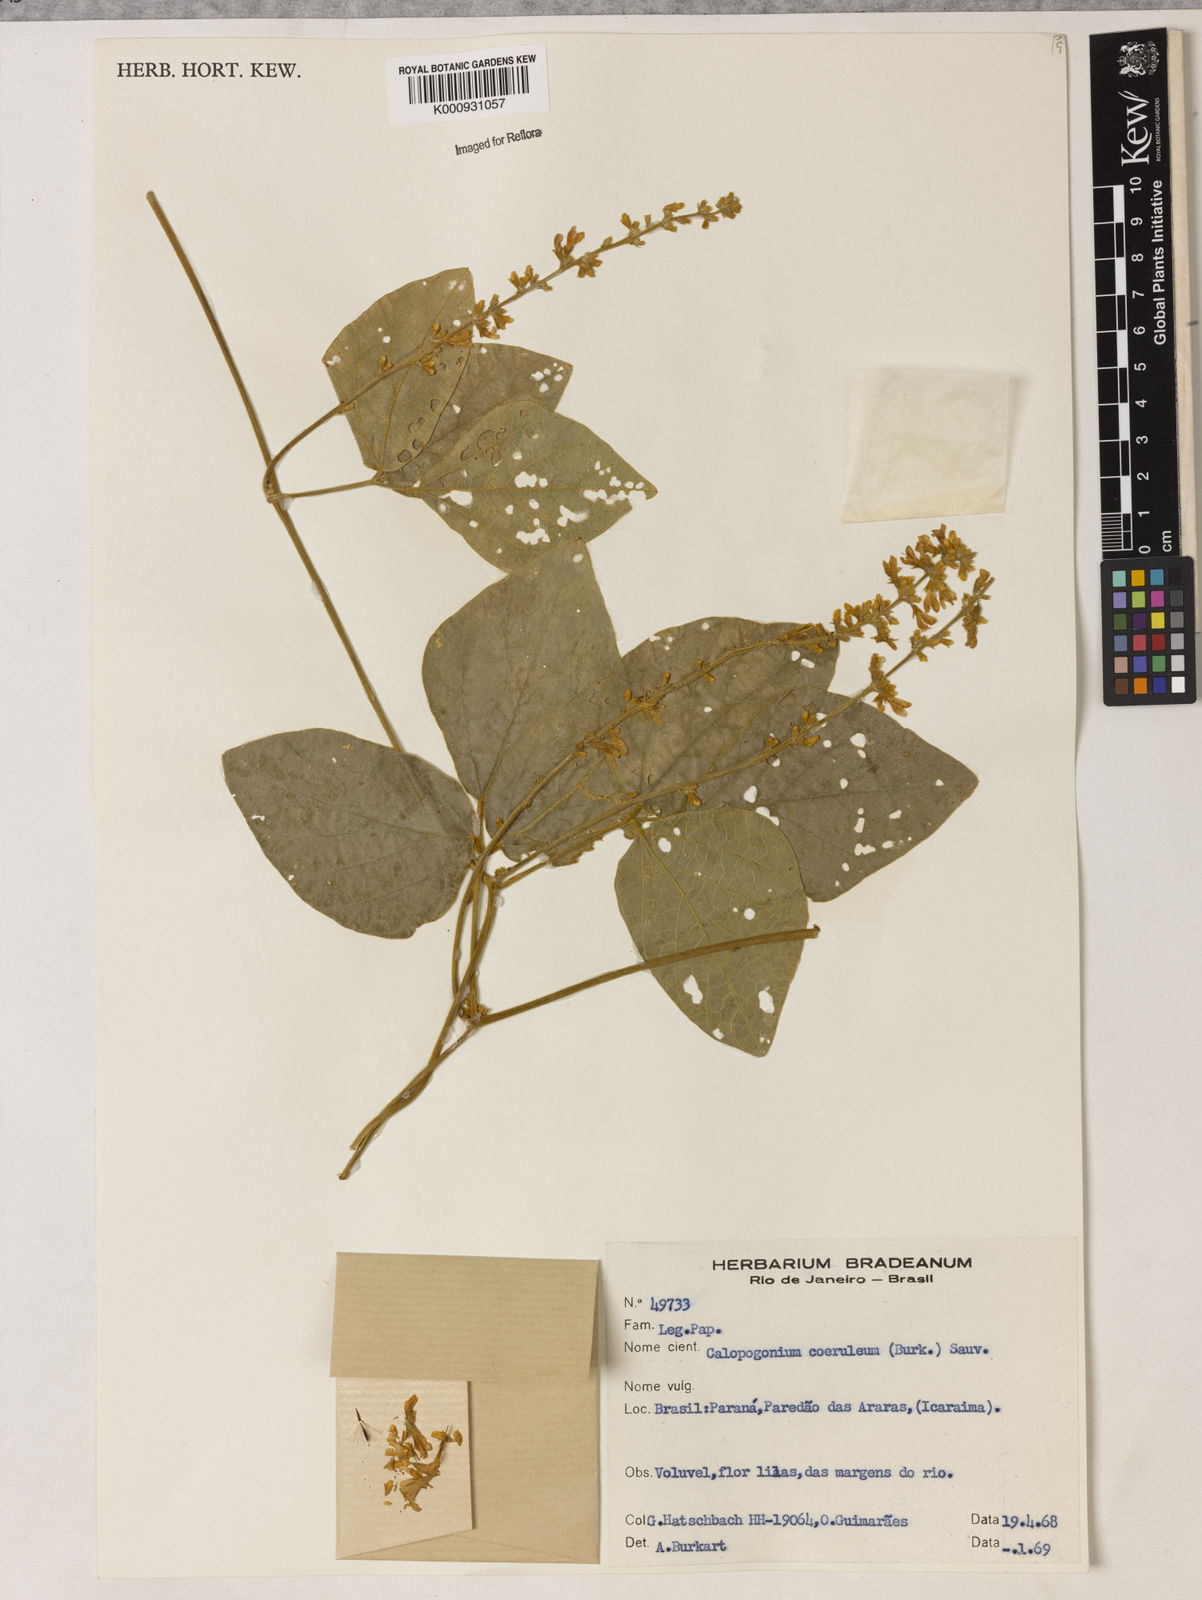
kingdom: Plantae
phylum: Tracheophyta
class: Magnoliopsida
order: Fabales
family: Fabaceae
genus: Calopogonium
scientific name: Calopogonium caeruleum
